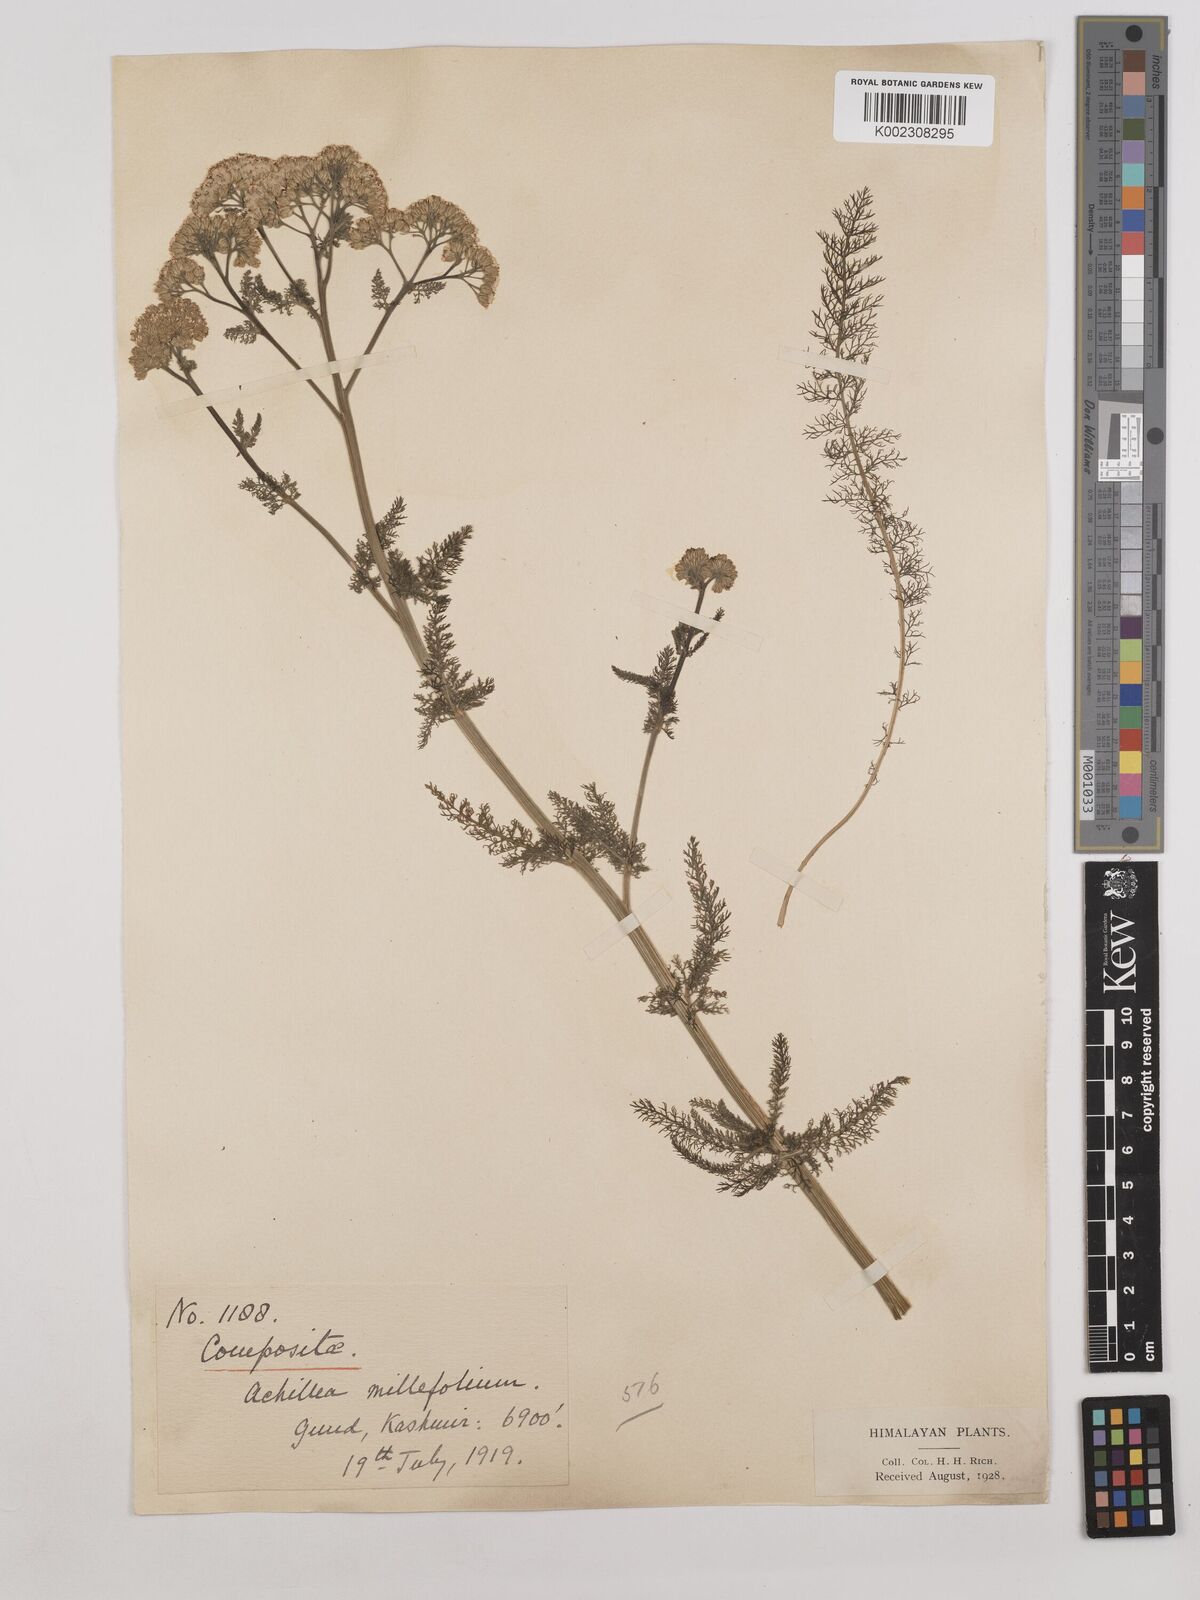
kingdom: Plantae
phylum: Tracheophyta
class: Magnoliopsida
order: Asterales
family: Asteraceae
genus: Achillea
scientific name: Achillea millefolium
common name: Yarrow
